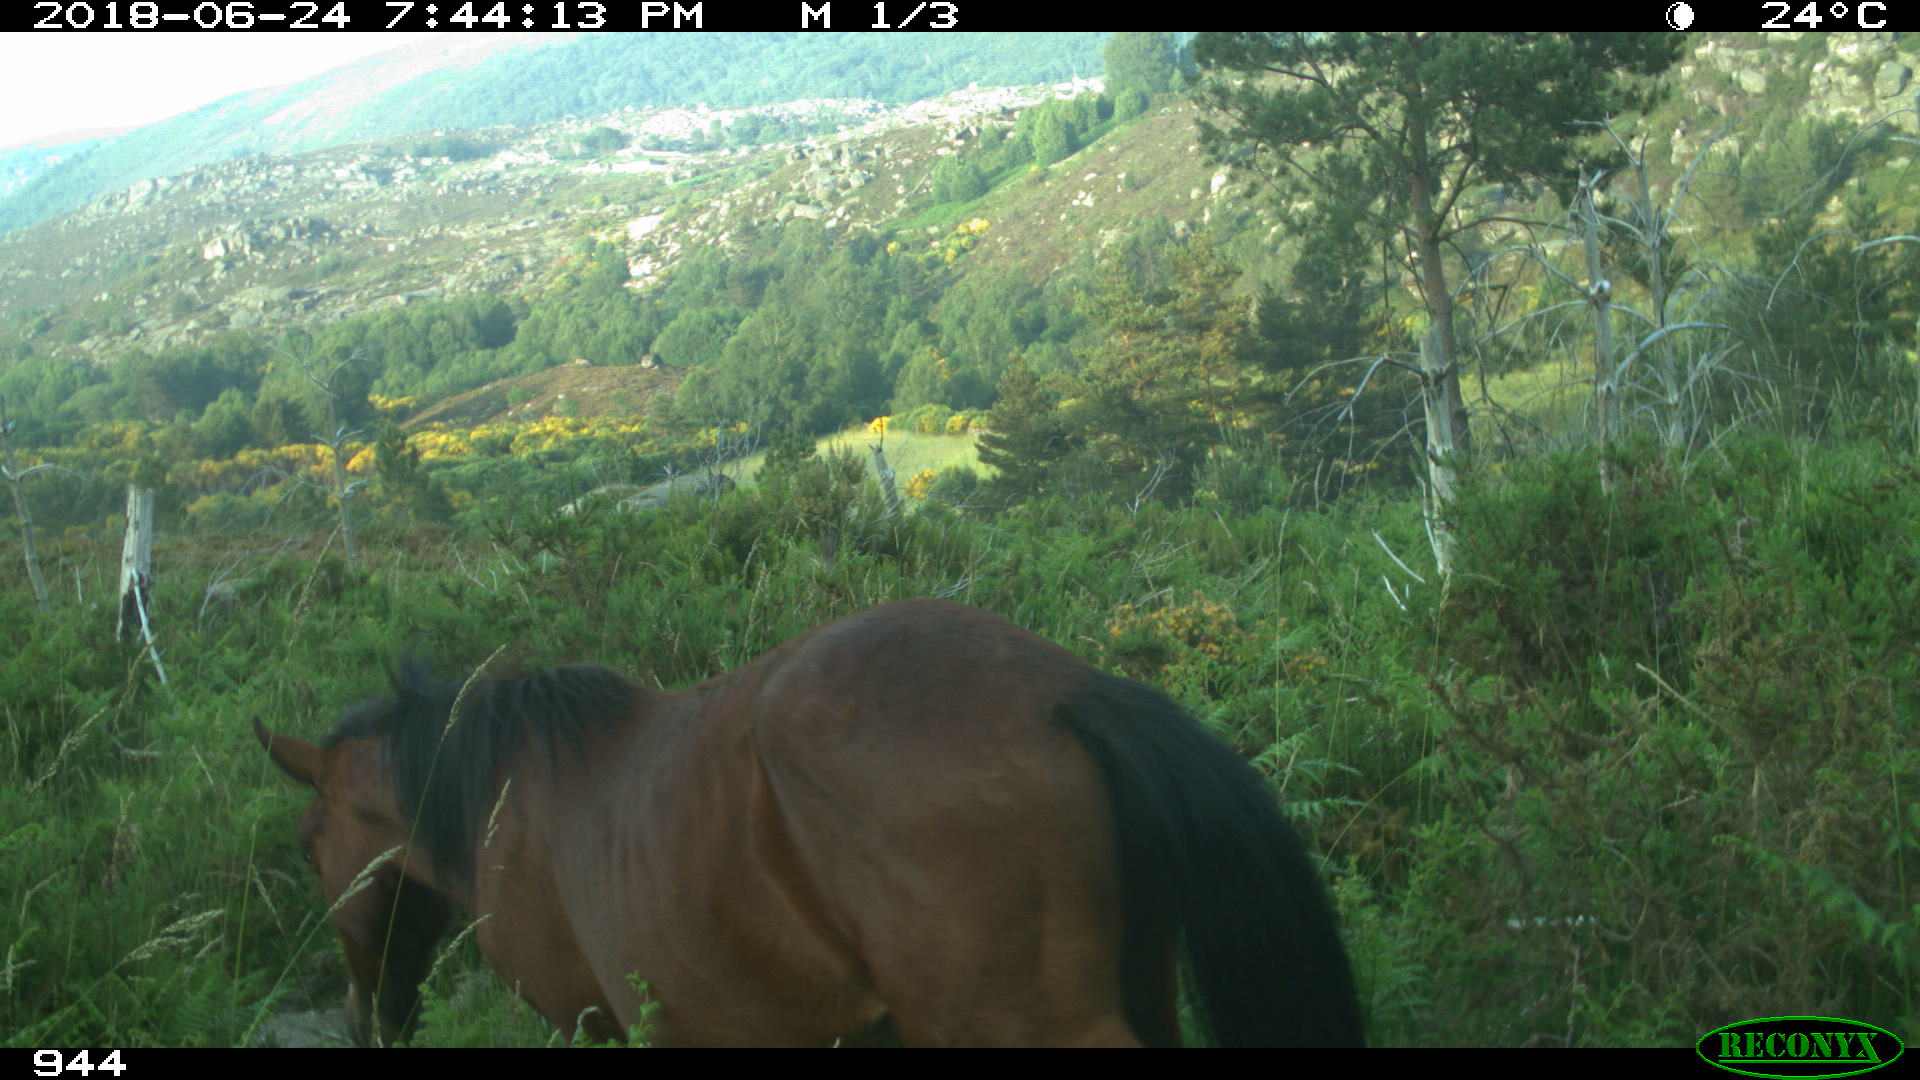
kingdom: Animalia
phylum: Chordata
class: Mammalia
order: Perissodactyla
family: Equidae
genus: Equus
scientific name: Equus caballus
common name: Horse
